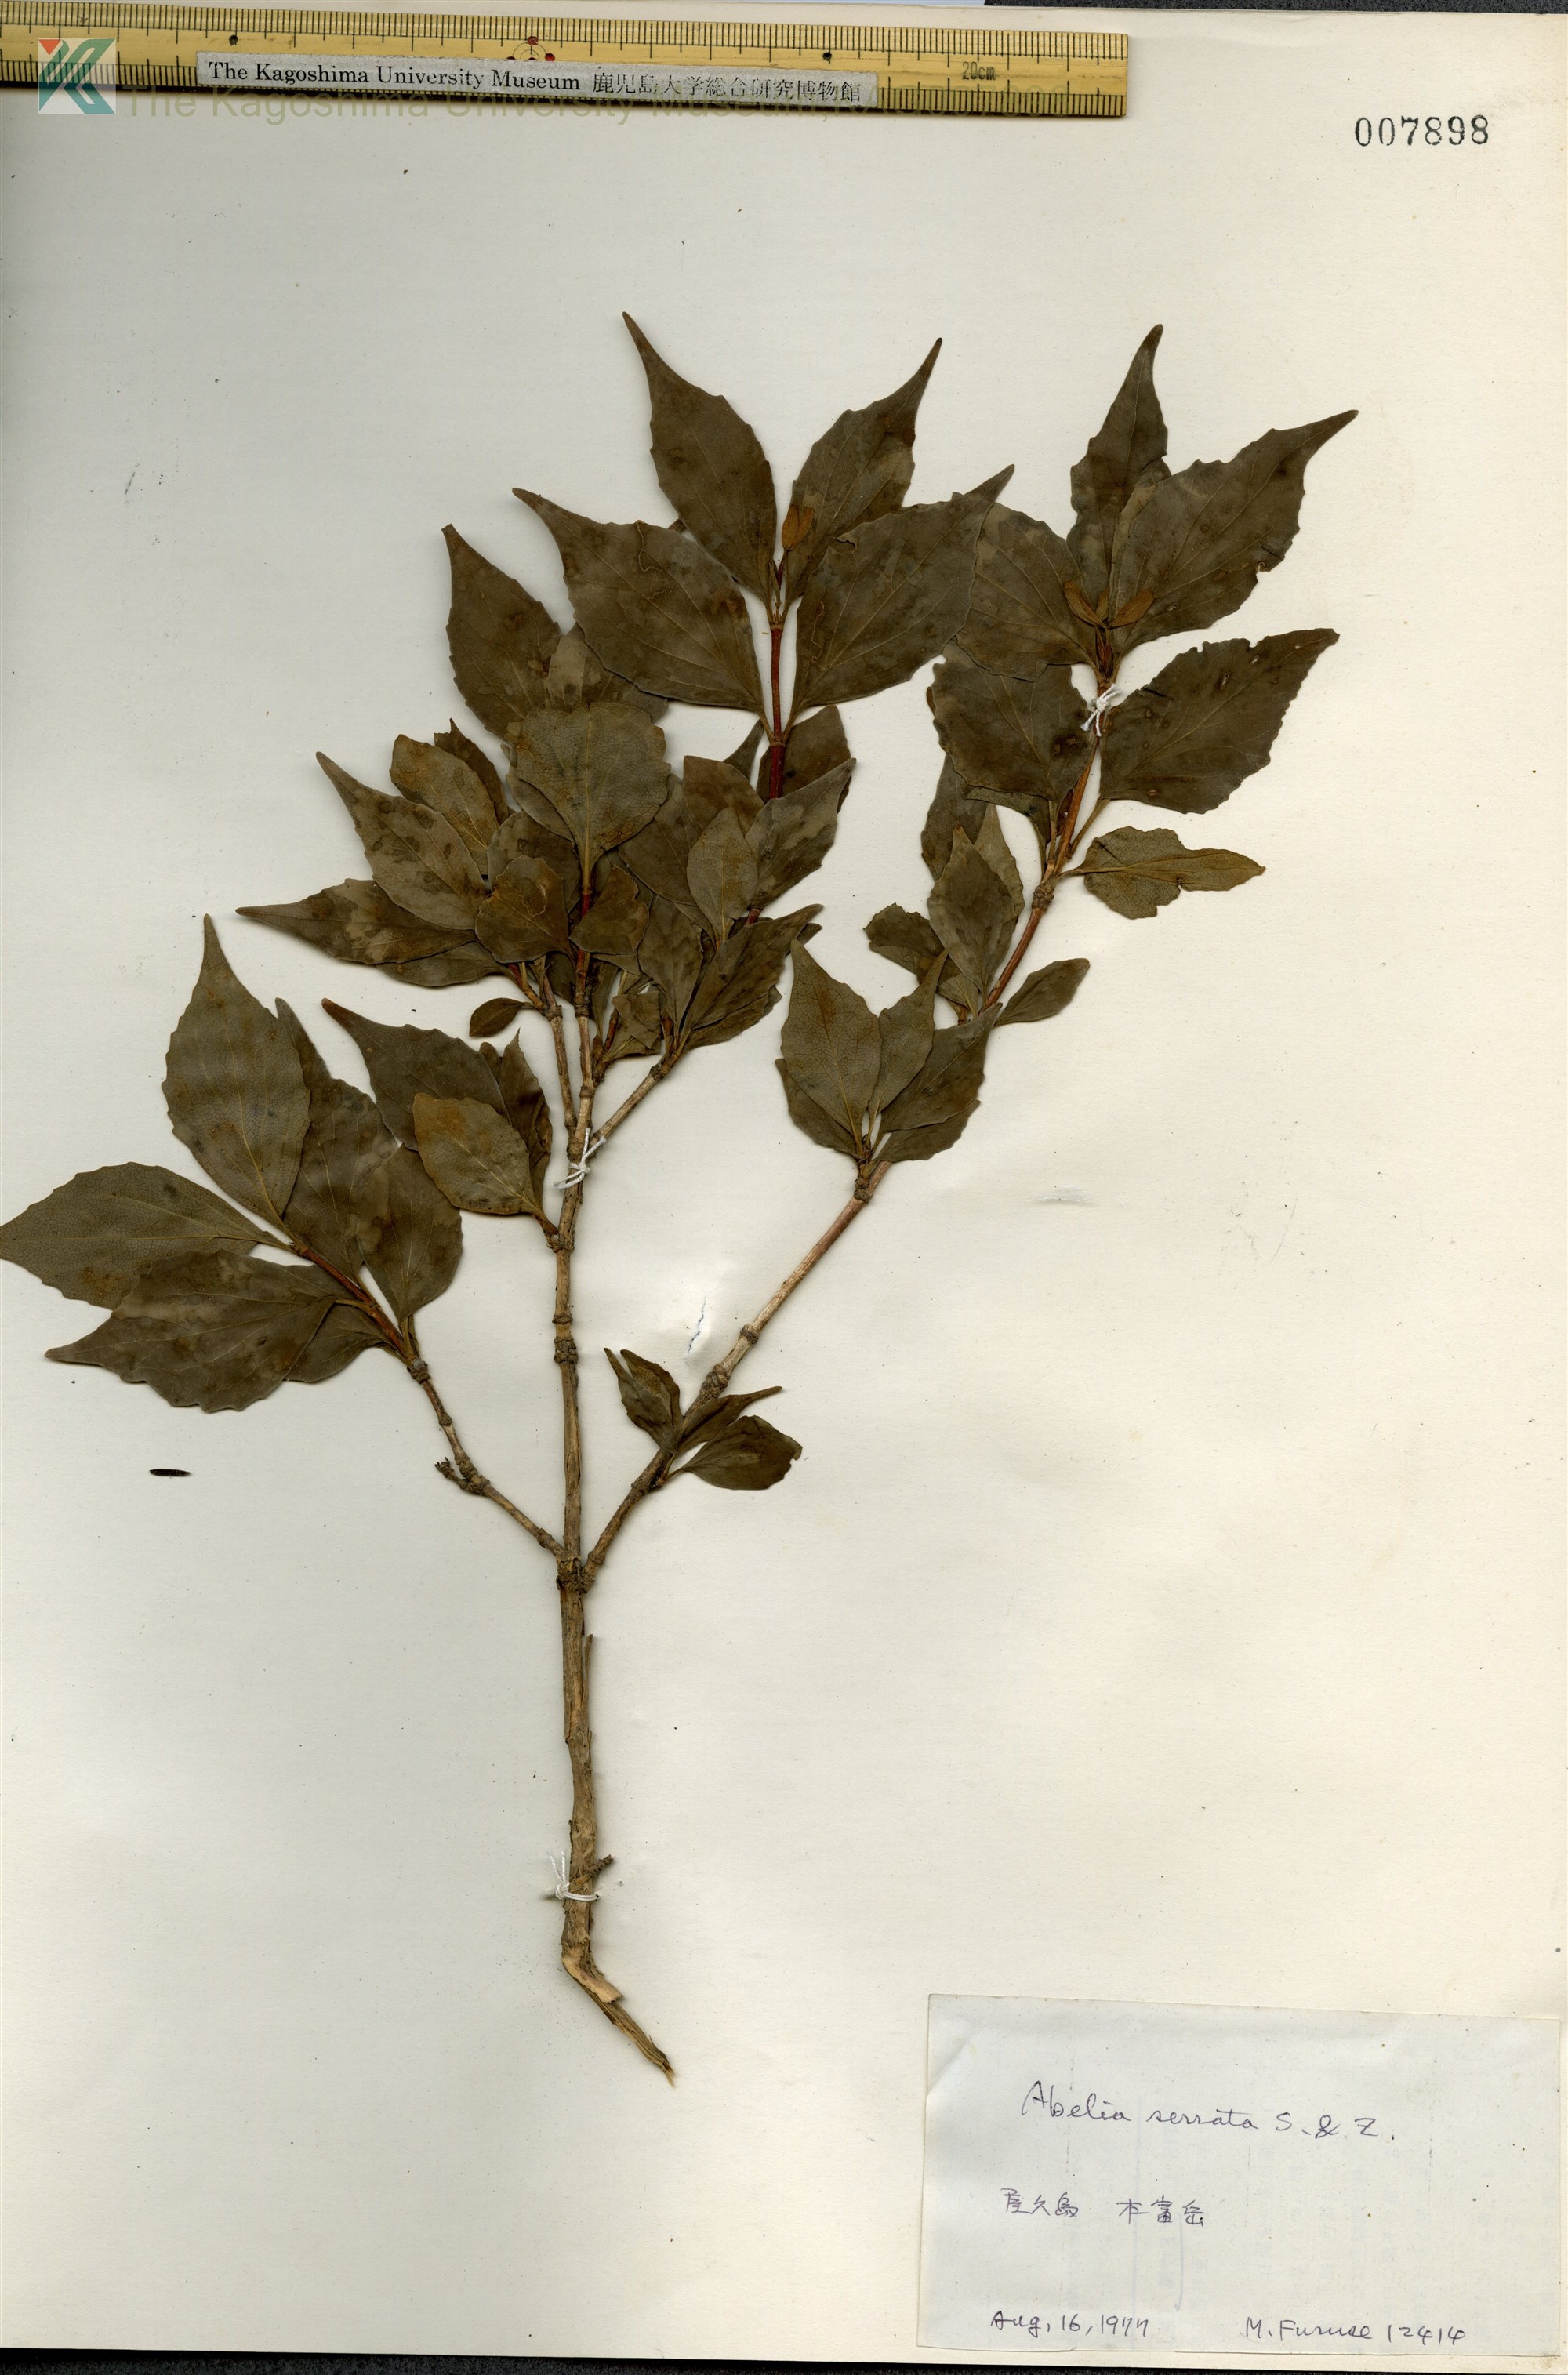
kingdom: Plantae
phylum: Tracheophyta
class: Magnoliopsida
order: Dipsacales
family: Caprifoliaceae
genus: Diabelia
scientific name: Diabelia serrata
